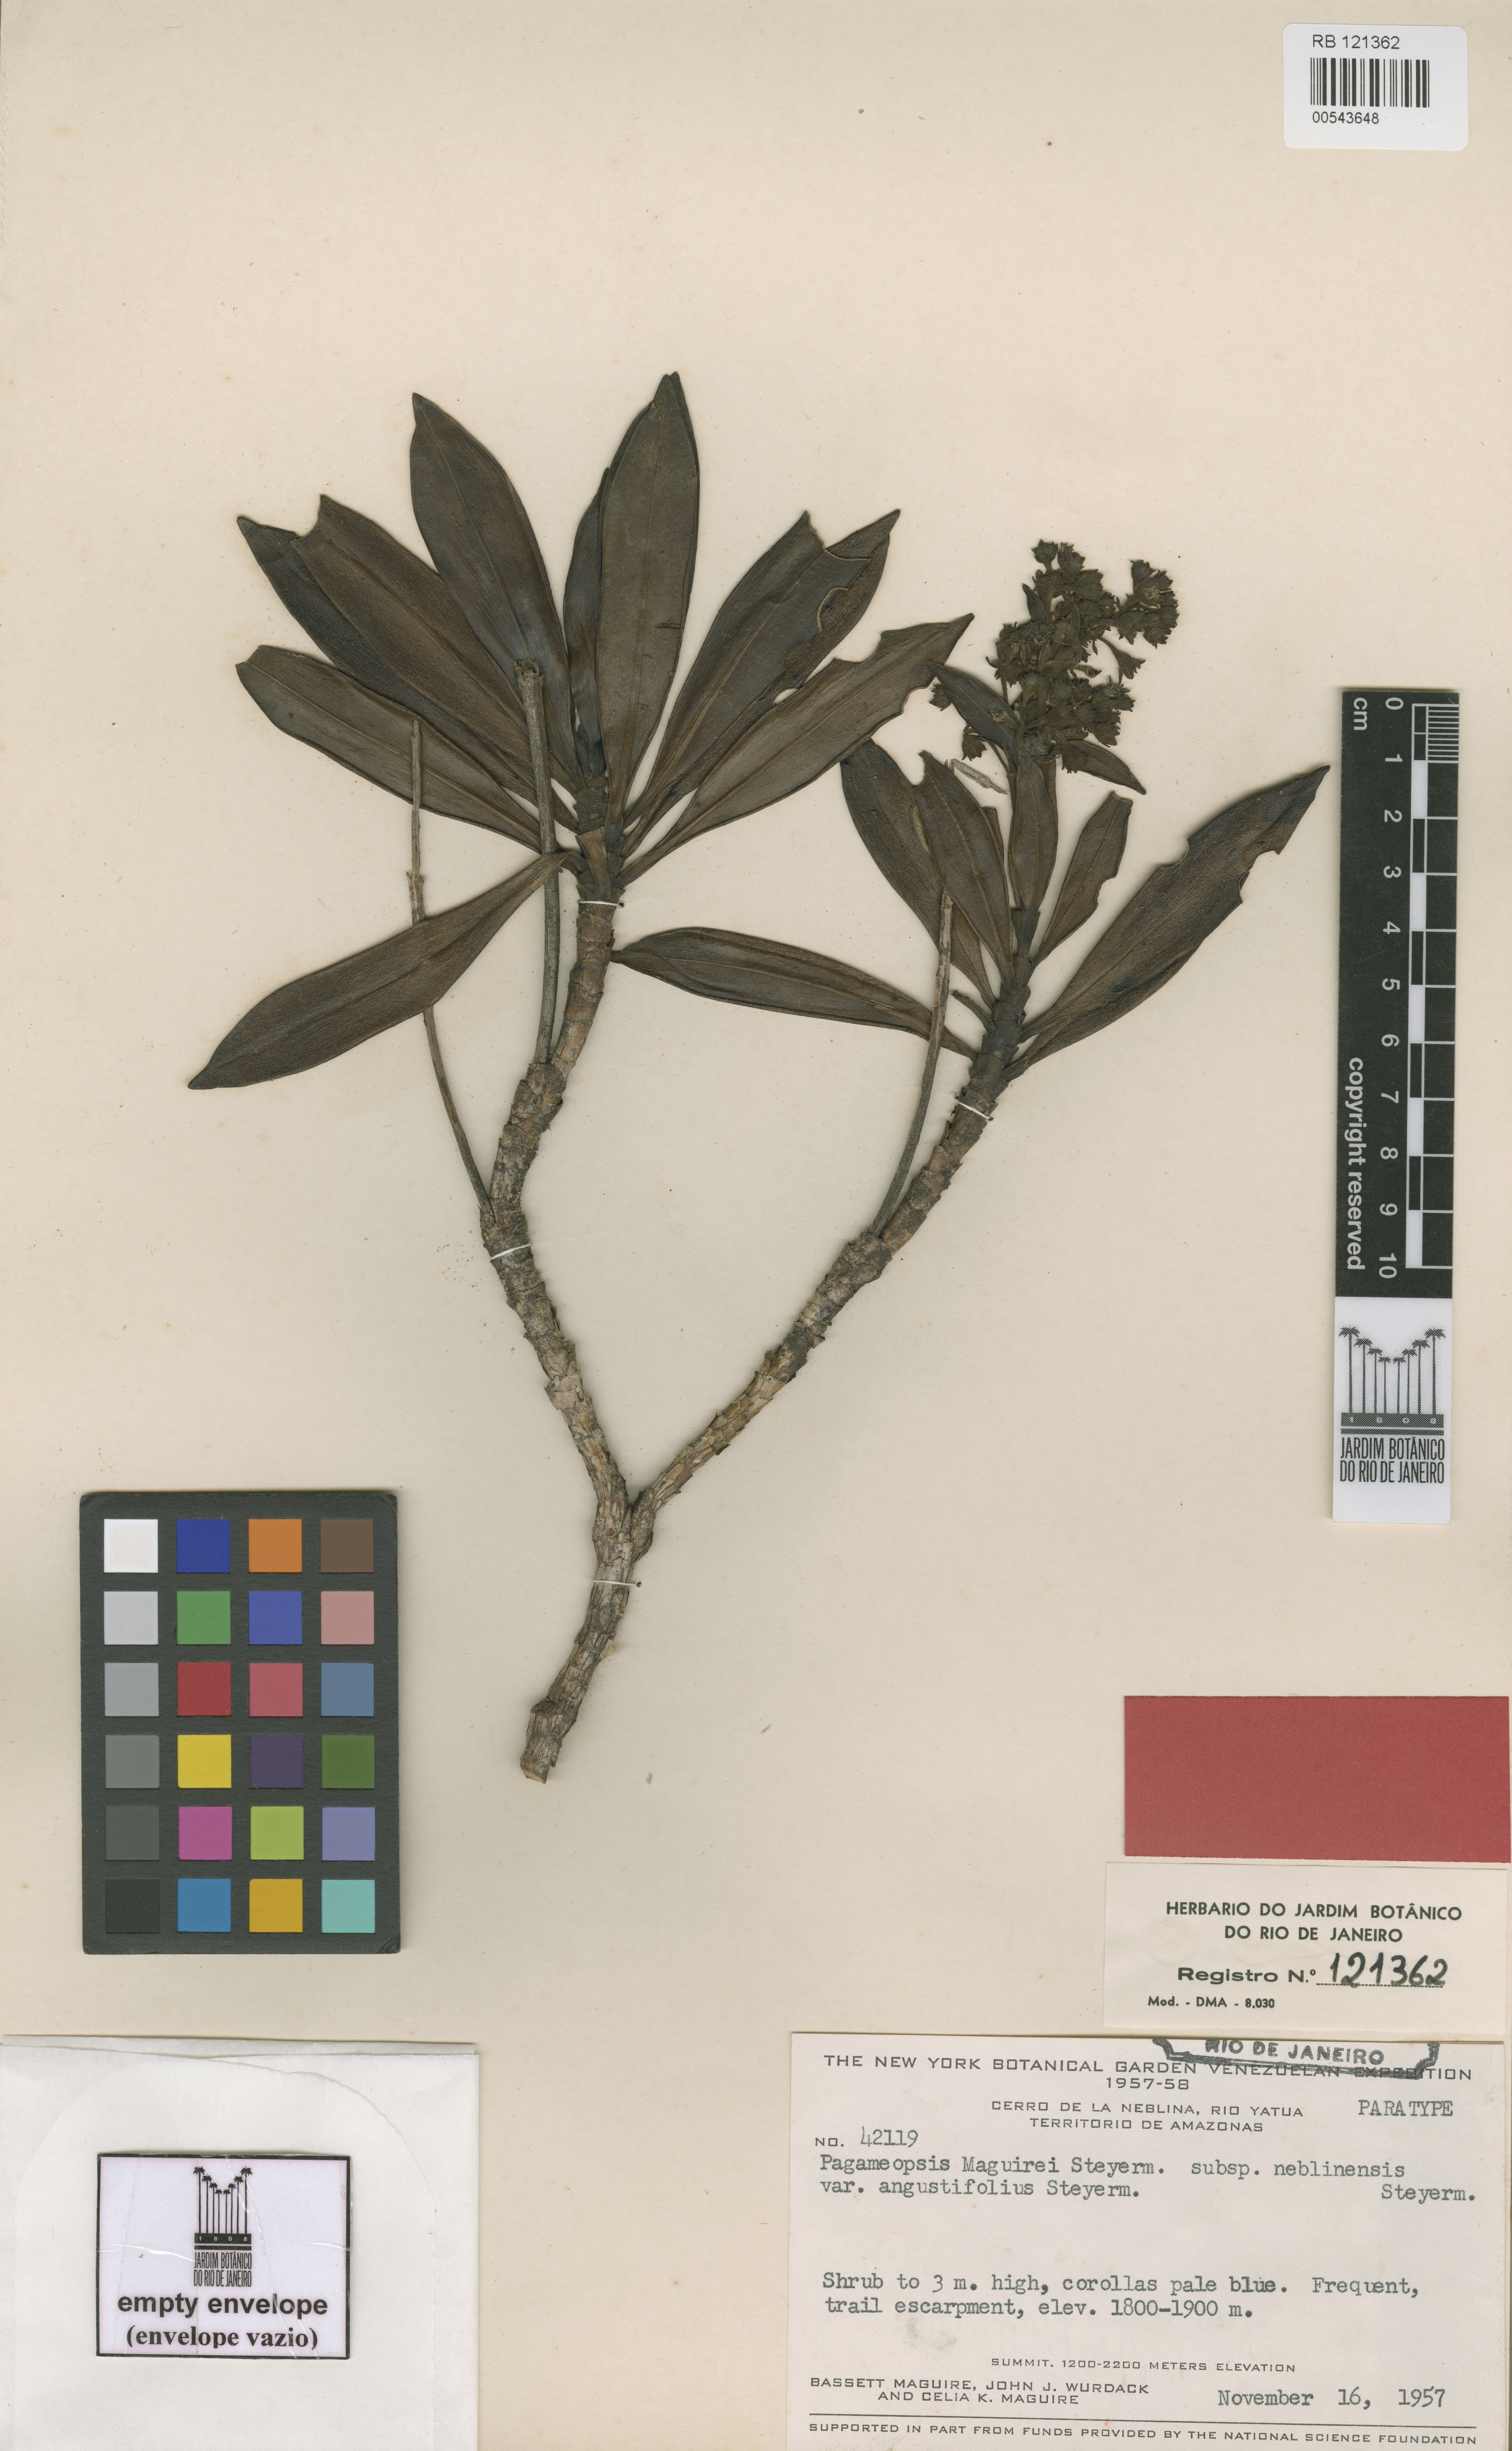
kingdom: Plantae
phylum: Tracheophyta
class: Magnoliopsida
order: Gentianales
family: Rubiaceae
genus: Pagameopsis
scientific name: Pagameopsis maguirei
